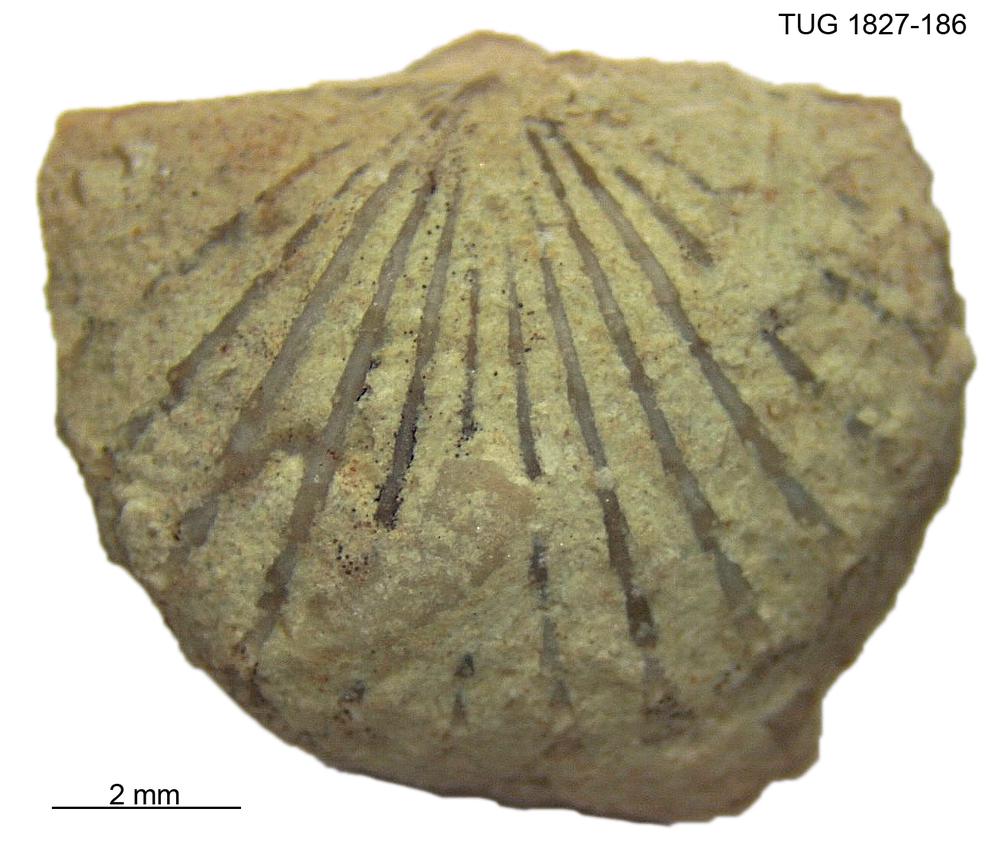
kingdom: Animalia
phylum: Brachiopoda
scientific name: Brachiopoda
